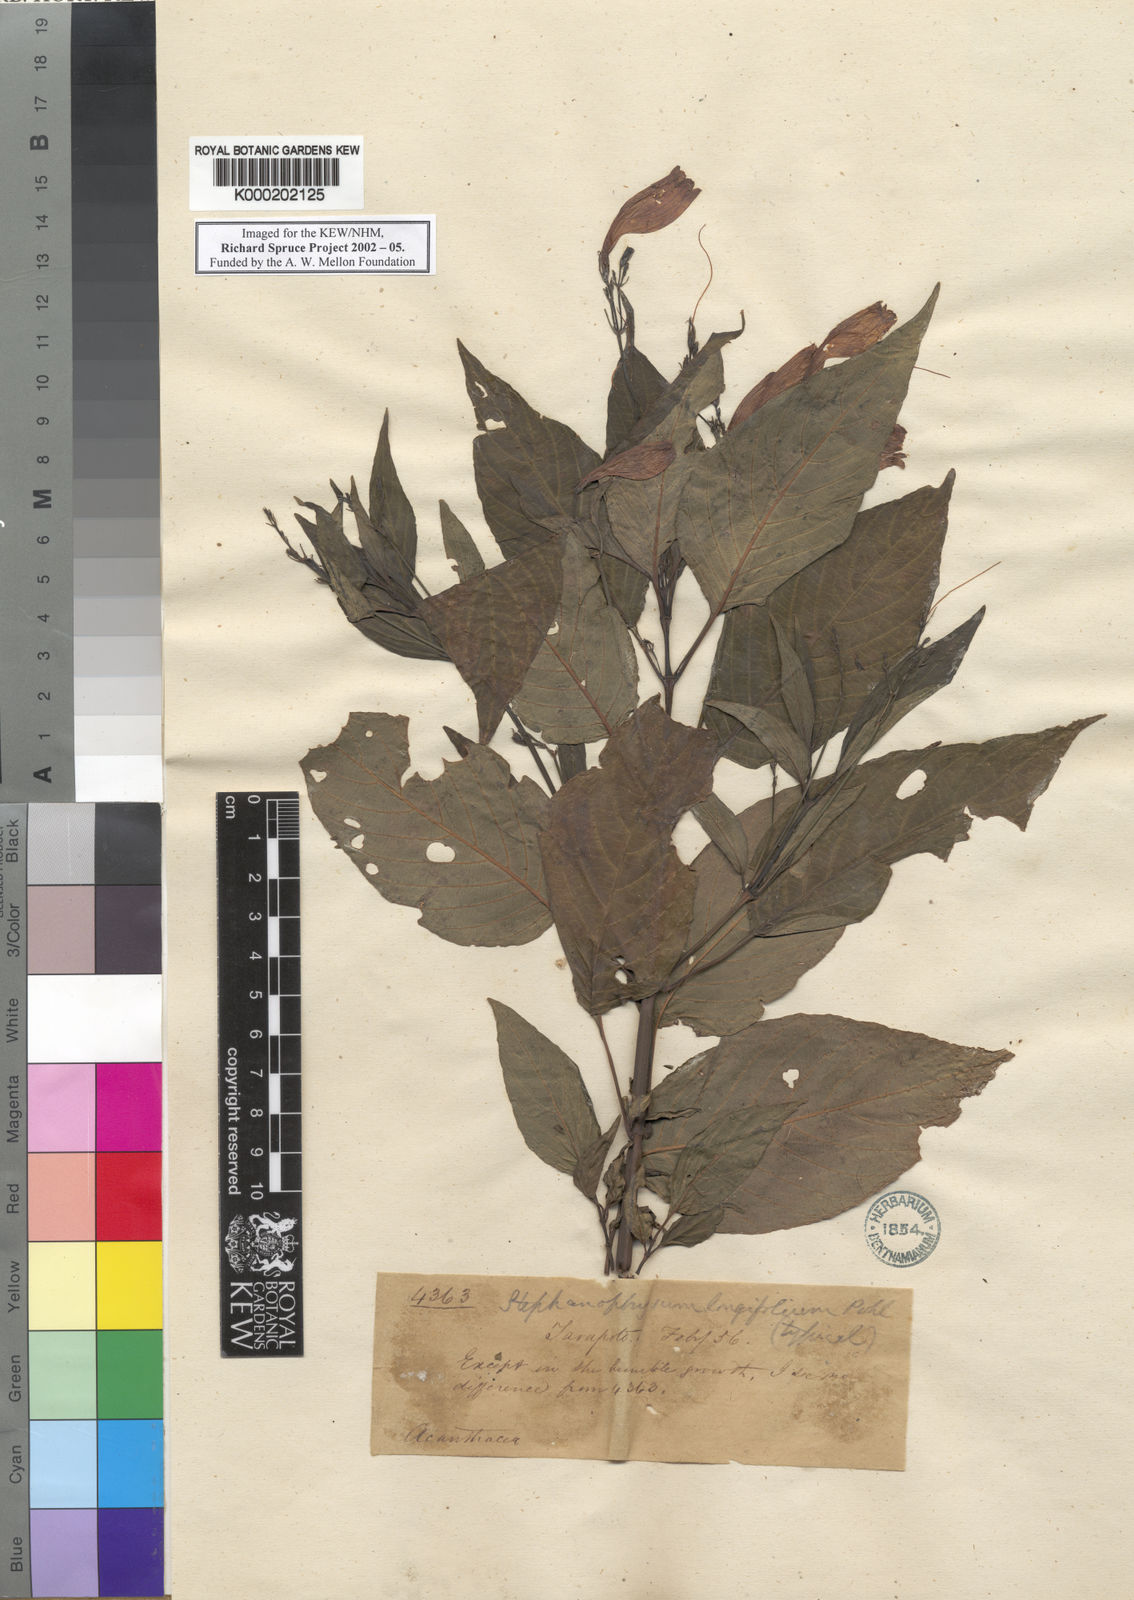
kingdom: Plantae
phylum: Tracheophyta
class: Magnoliopsida
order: Lamiales
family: Acanthaceae
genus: Ruellia
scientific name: Ruellia brevifolia
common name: Tropical wild petunia
